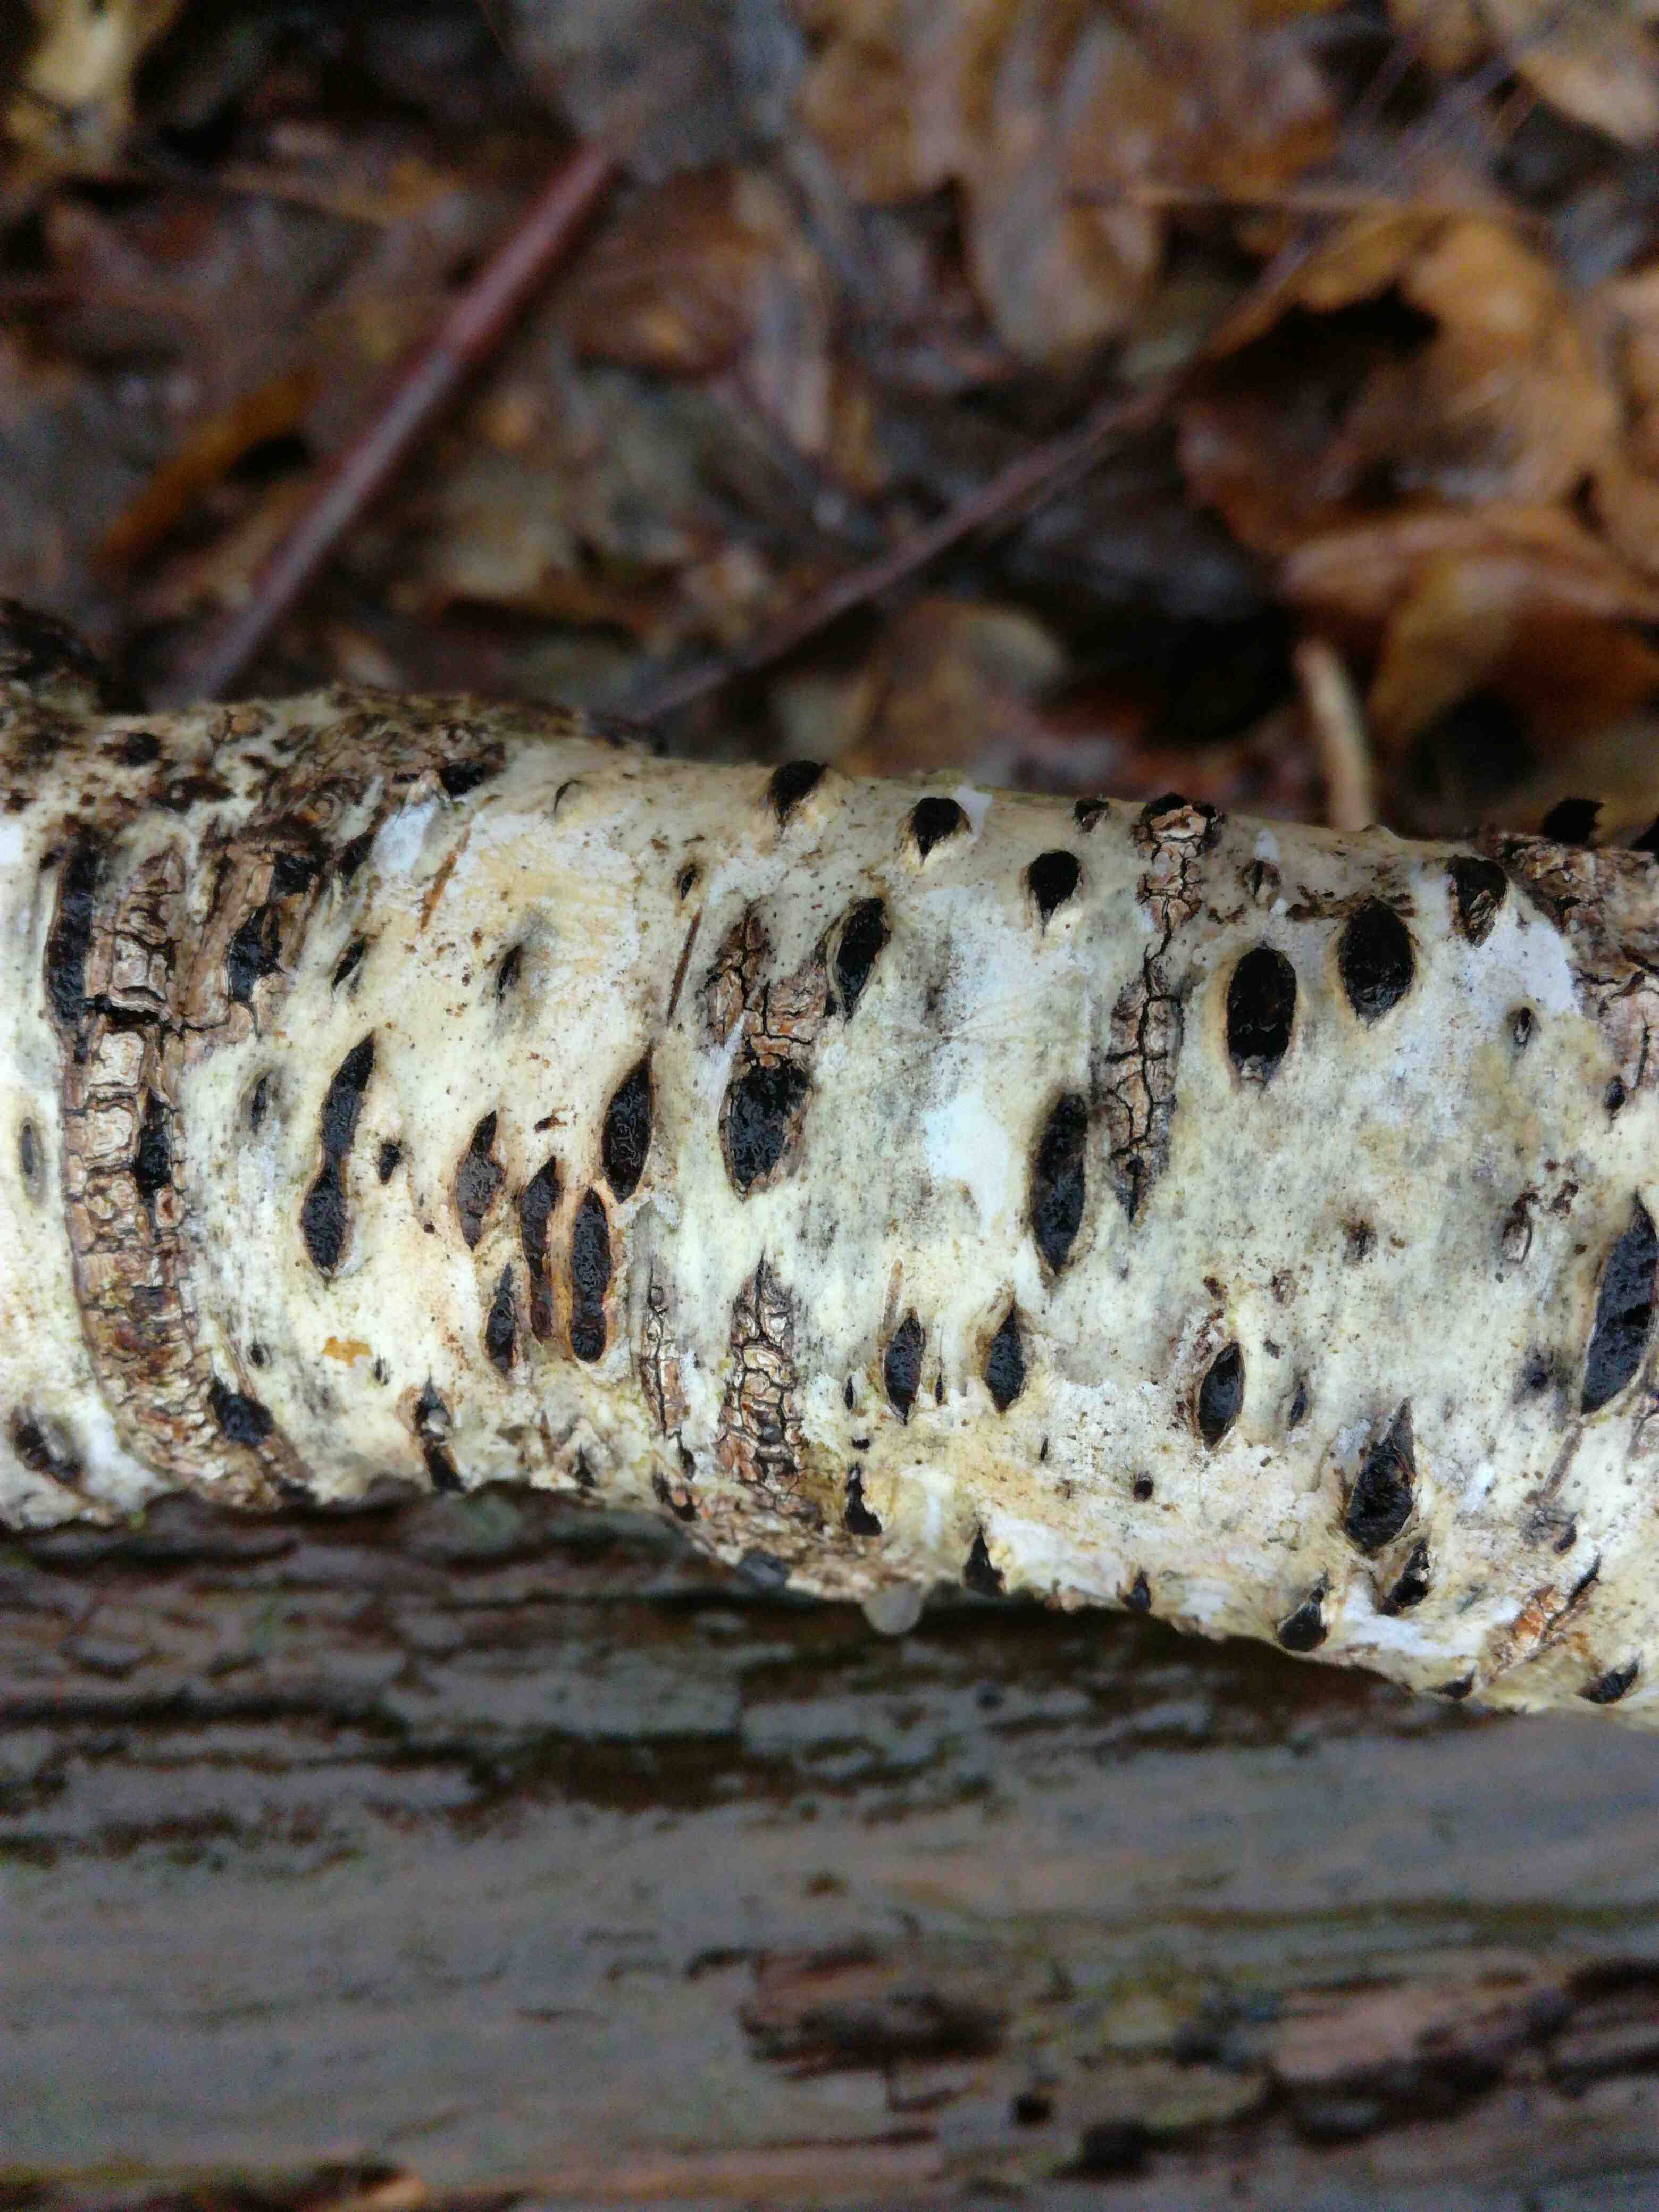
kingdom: Fungi
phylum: Ascomycota
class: Sordariomycetes
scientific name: Sordariomycetes
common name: kernesvampklassen
